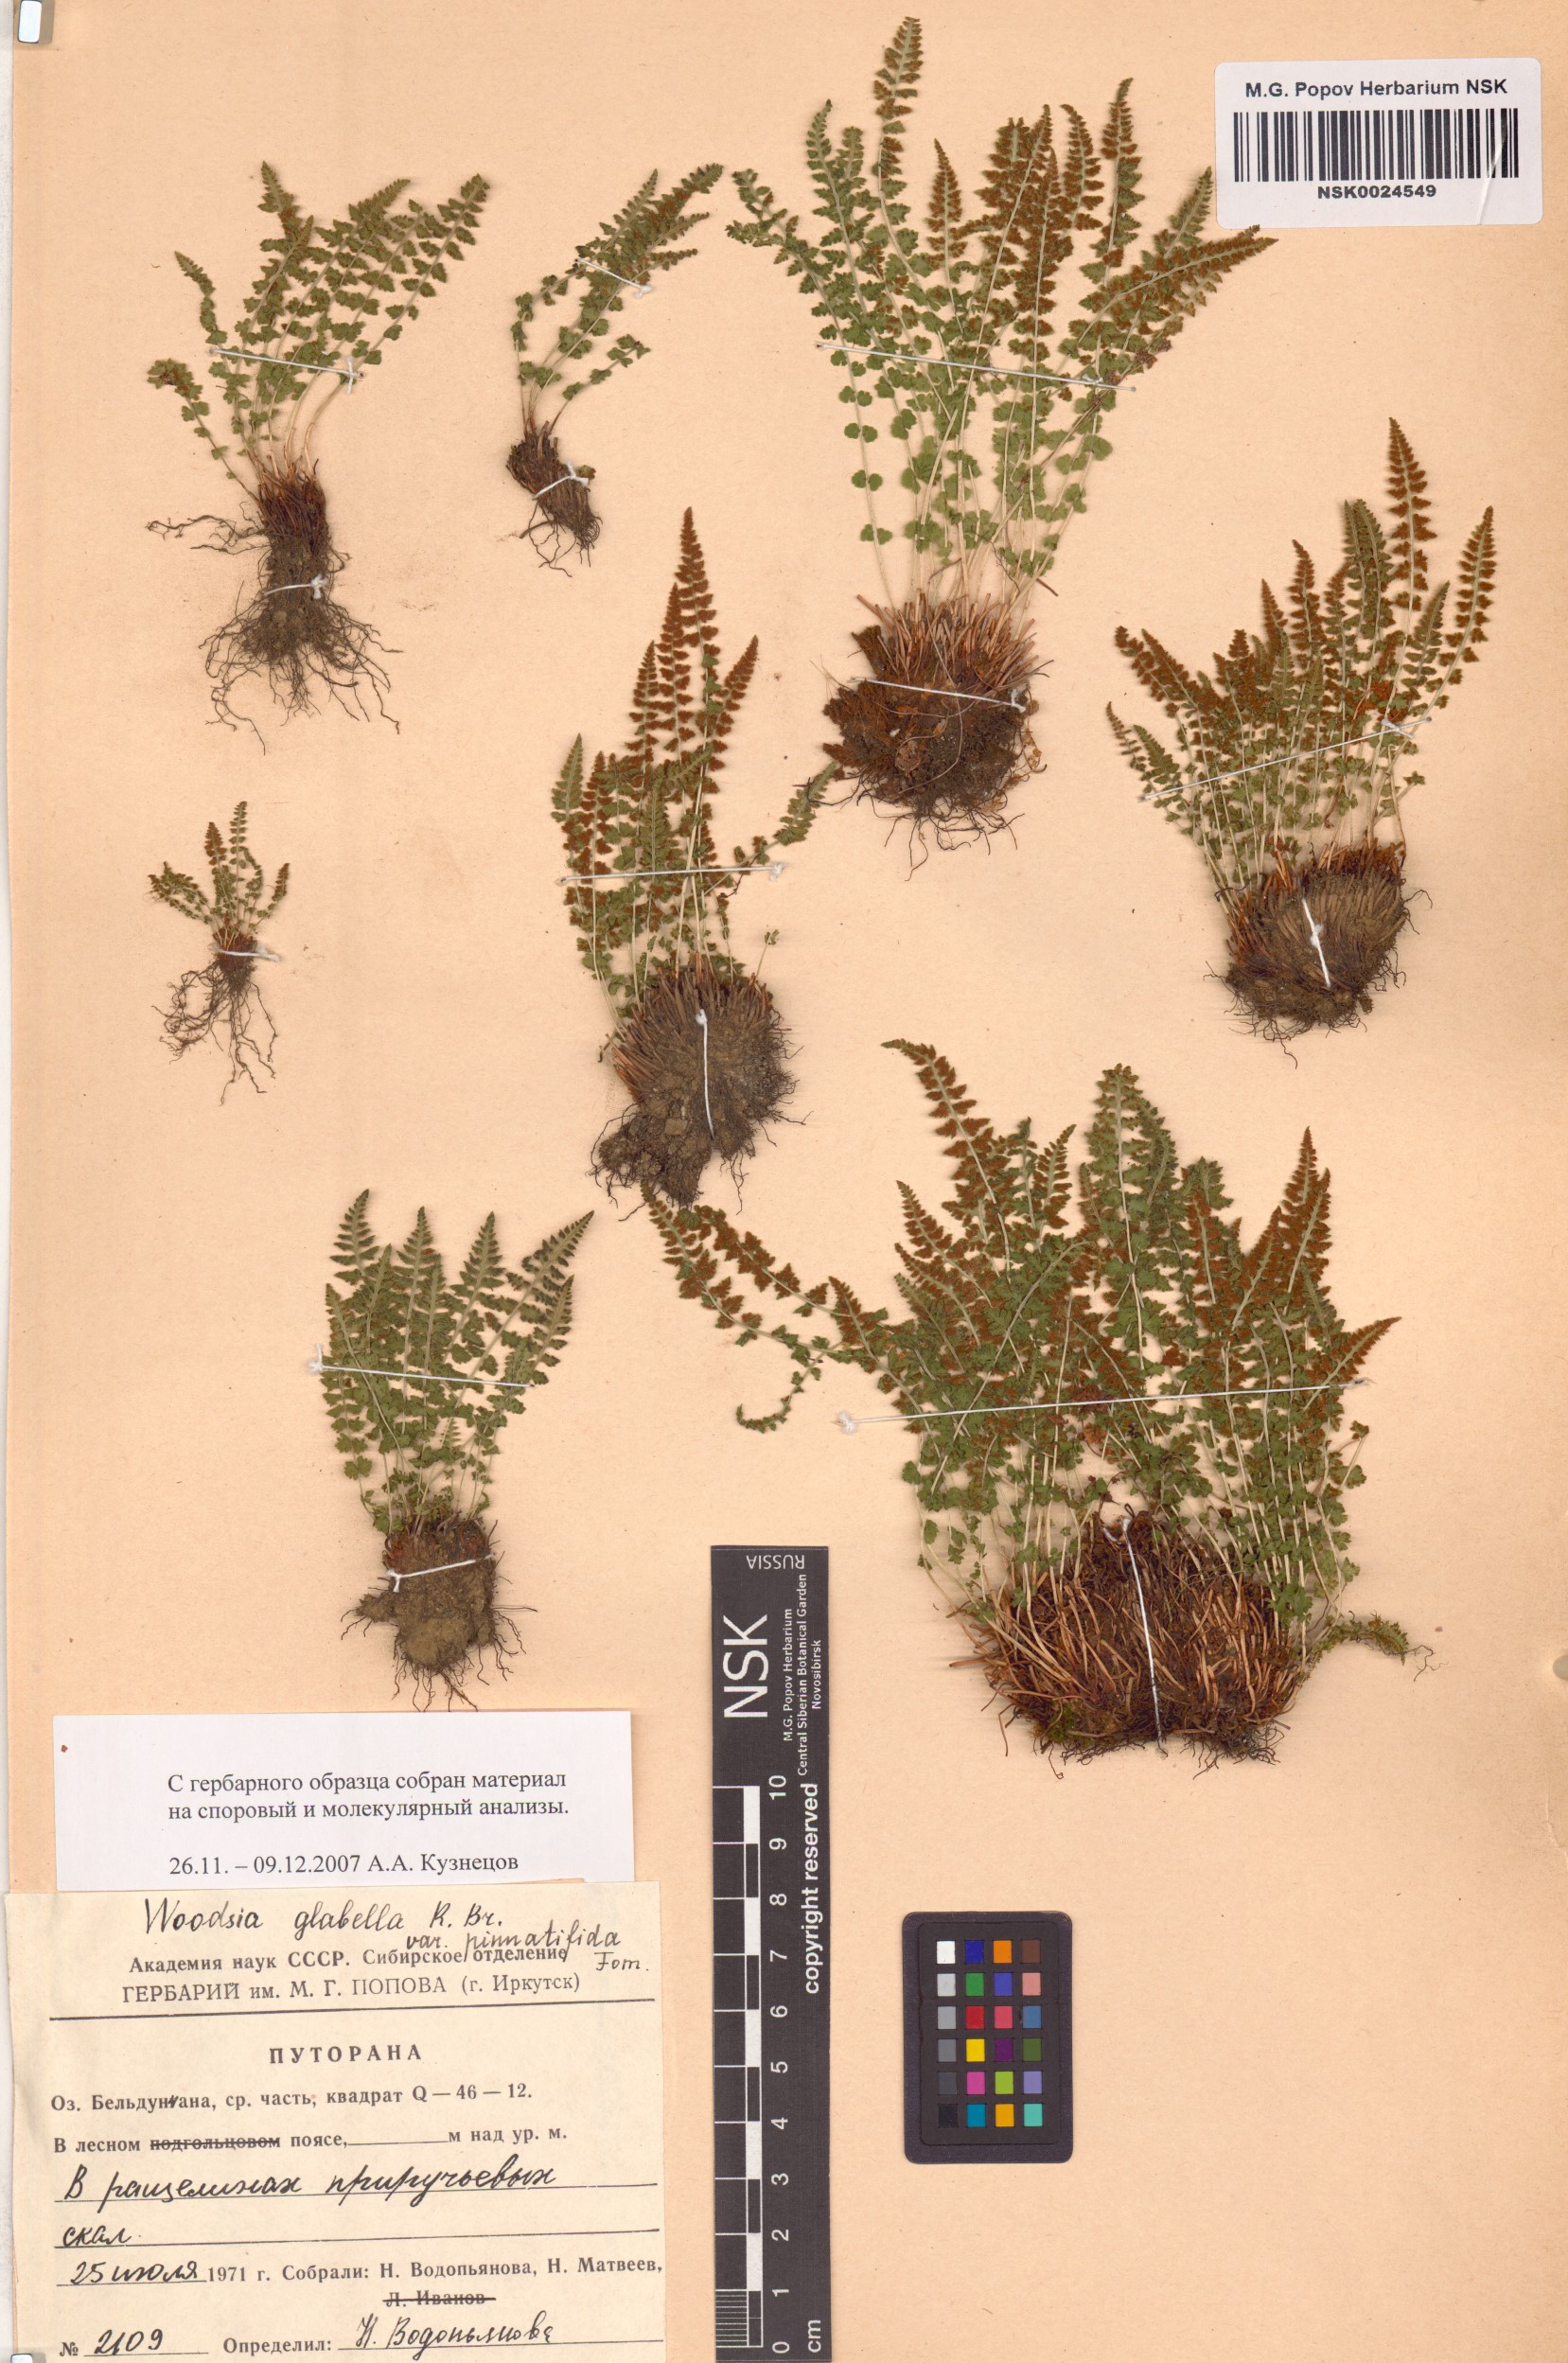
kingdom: Plantae
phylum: Tracheophyta
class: Polypodiopsida
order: Polypodiales
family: Woodsiaceae
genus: Woodsia
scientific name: Woodsia pulchella
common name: Graceful woodsia
